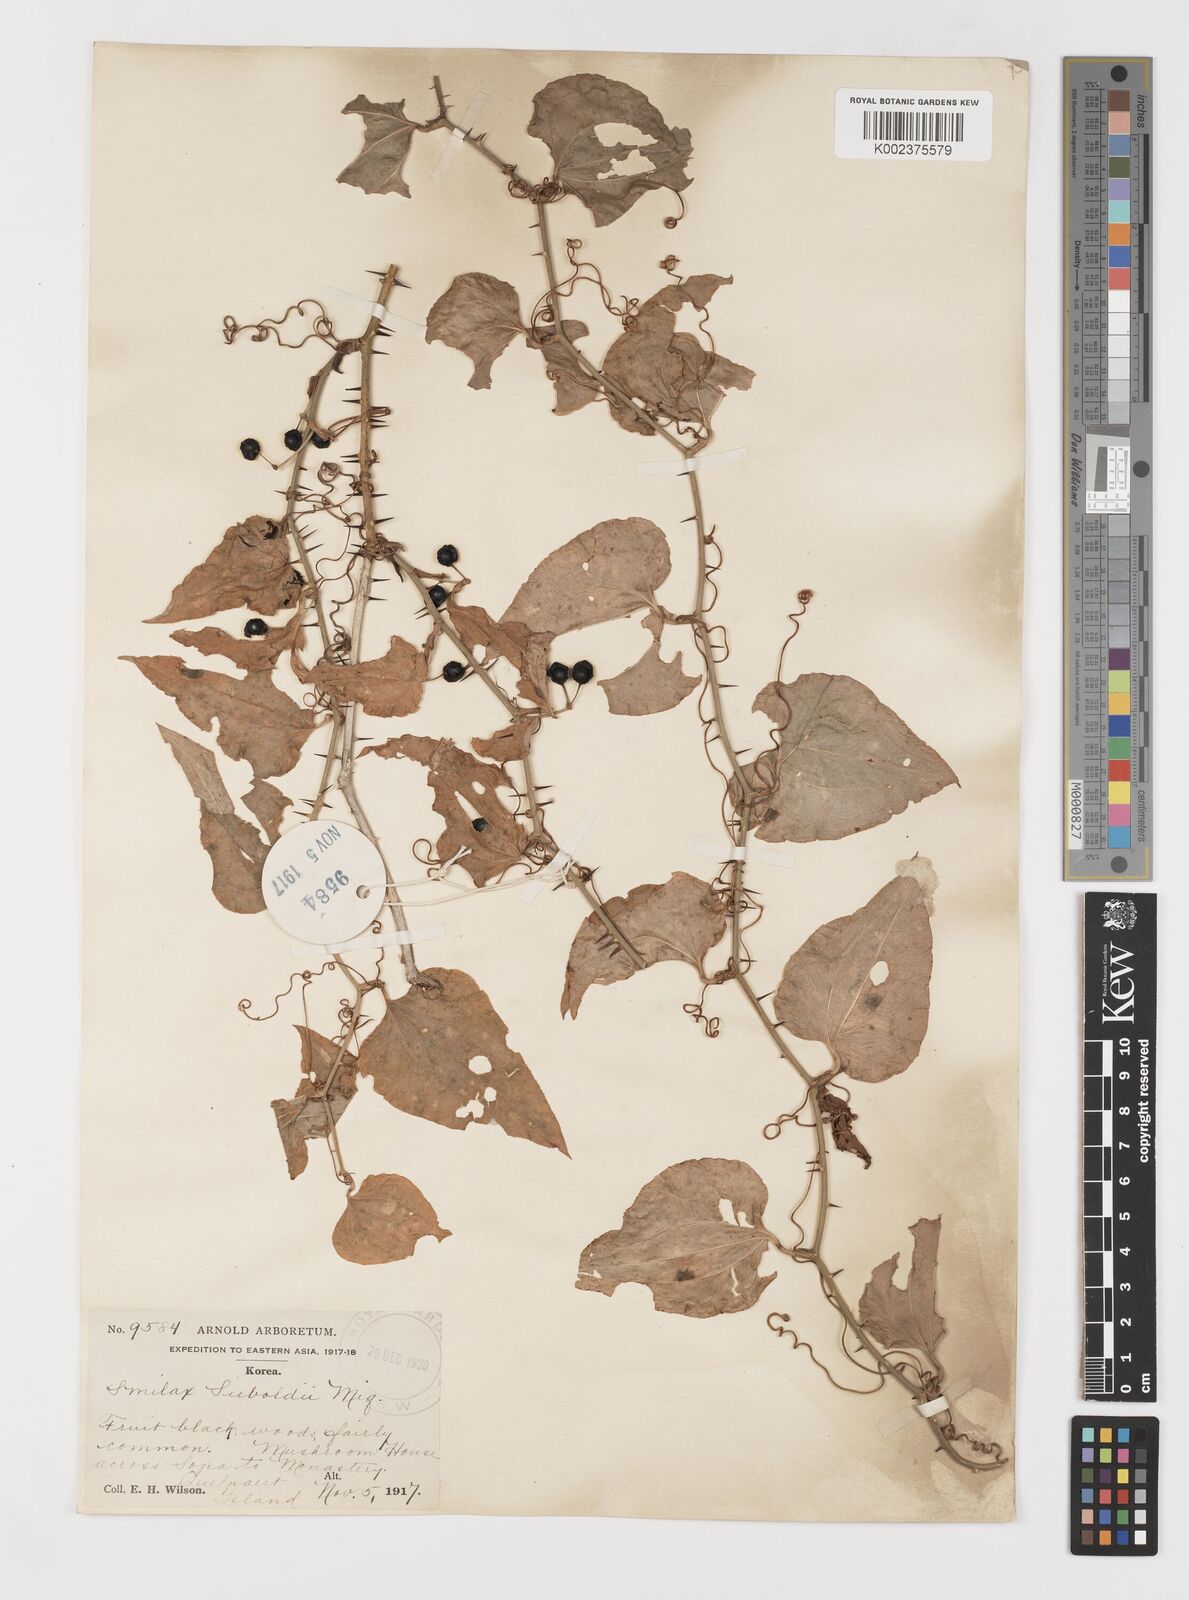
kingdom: Plantae
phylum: Tracheophyta
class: Liliopsida
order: Liliales
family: Smilacaceae
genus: Smilax
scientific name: Smilax sieboldii
